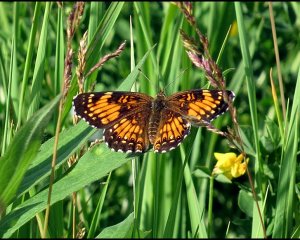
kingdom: Animalia
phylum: Arthropoda
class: Insecta
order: Lepidoptera
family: Nymphalidae
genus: Chlosyne
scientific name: Chlosyne harrisii
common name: Harris's Checkerspot
